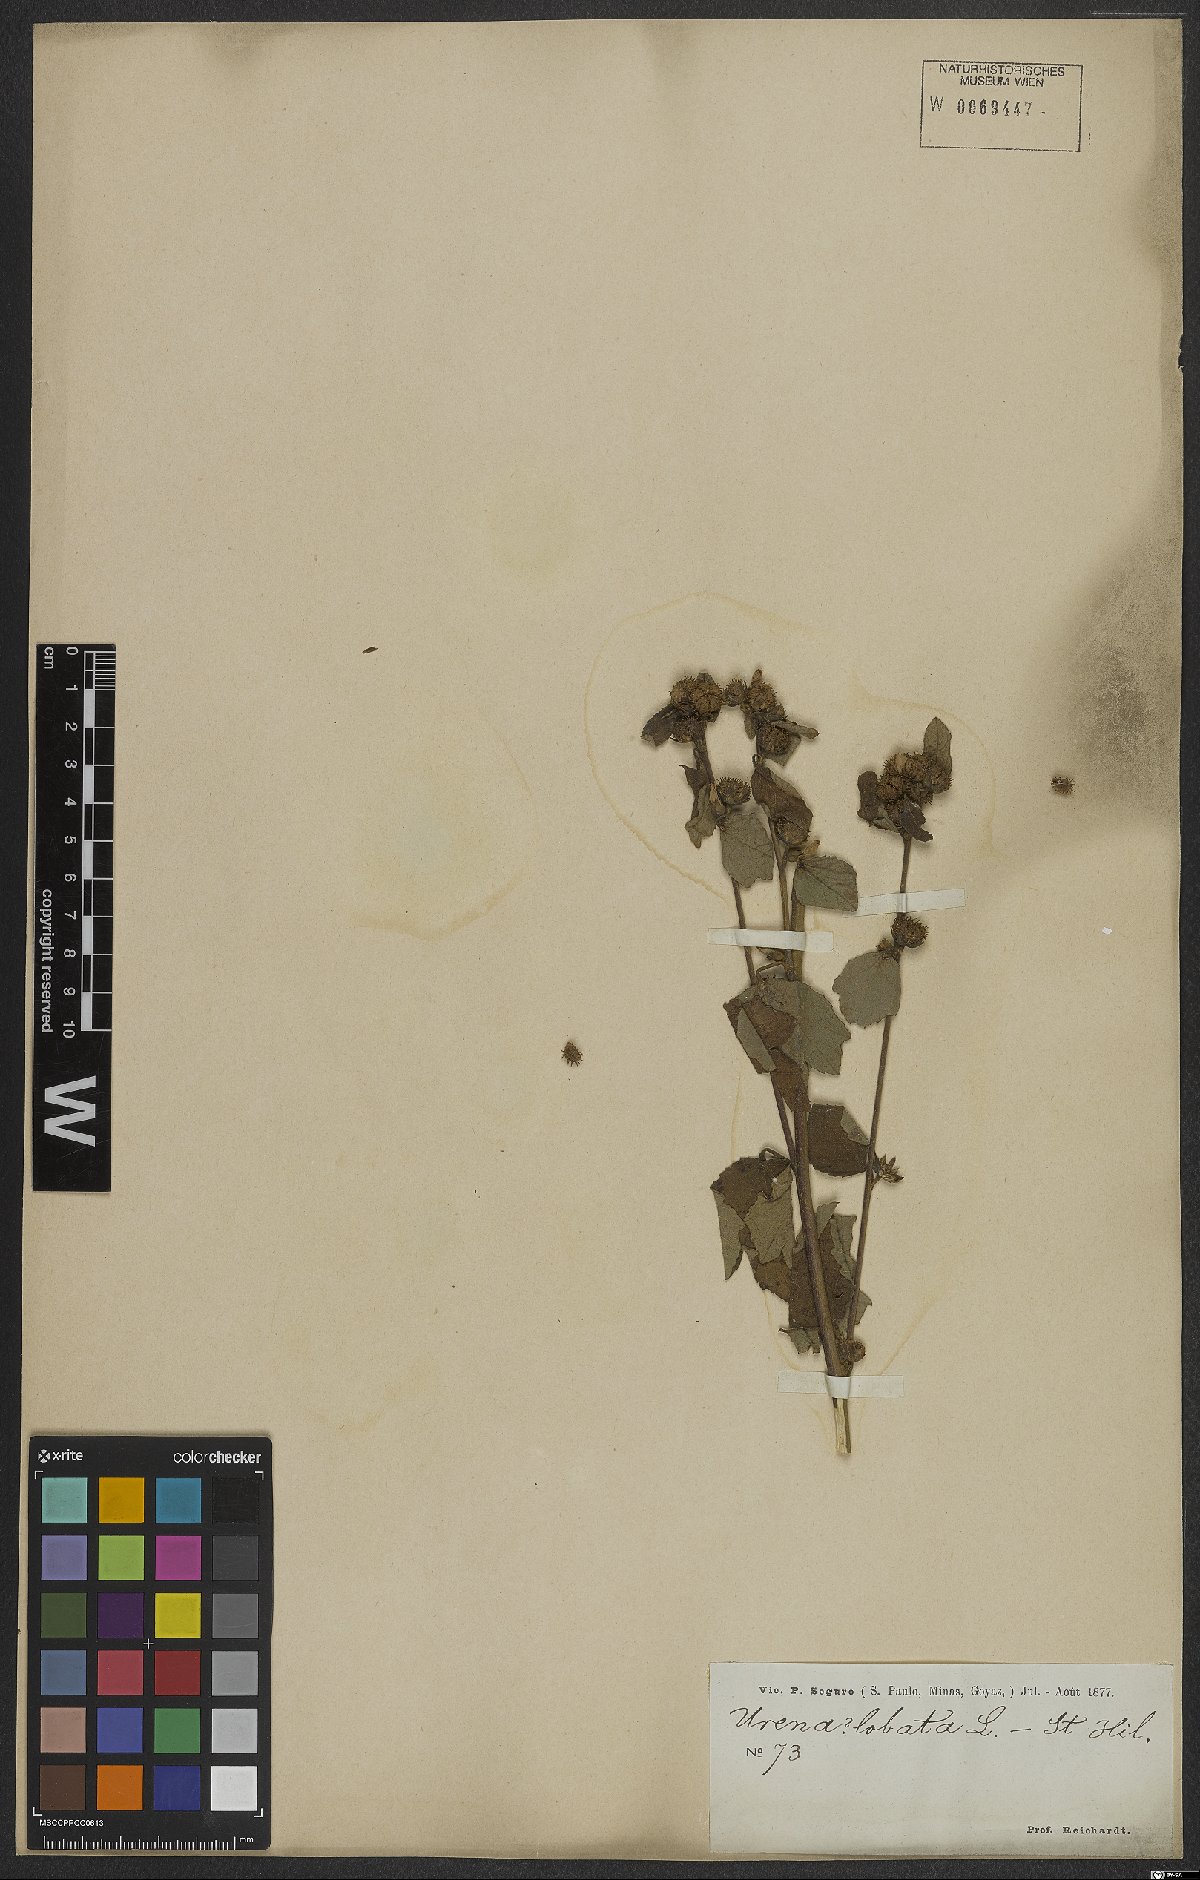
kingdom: Plantae
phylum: Tracheophyta
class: Magnoliopsida
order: Malvales
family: Malvaceae
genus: Urena
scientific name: Urena lobata
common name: Caesarweed
